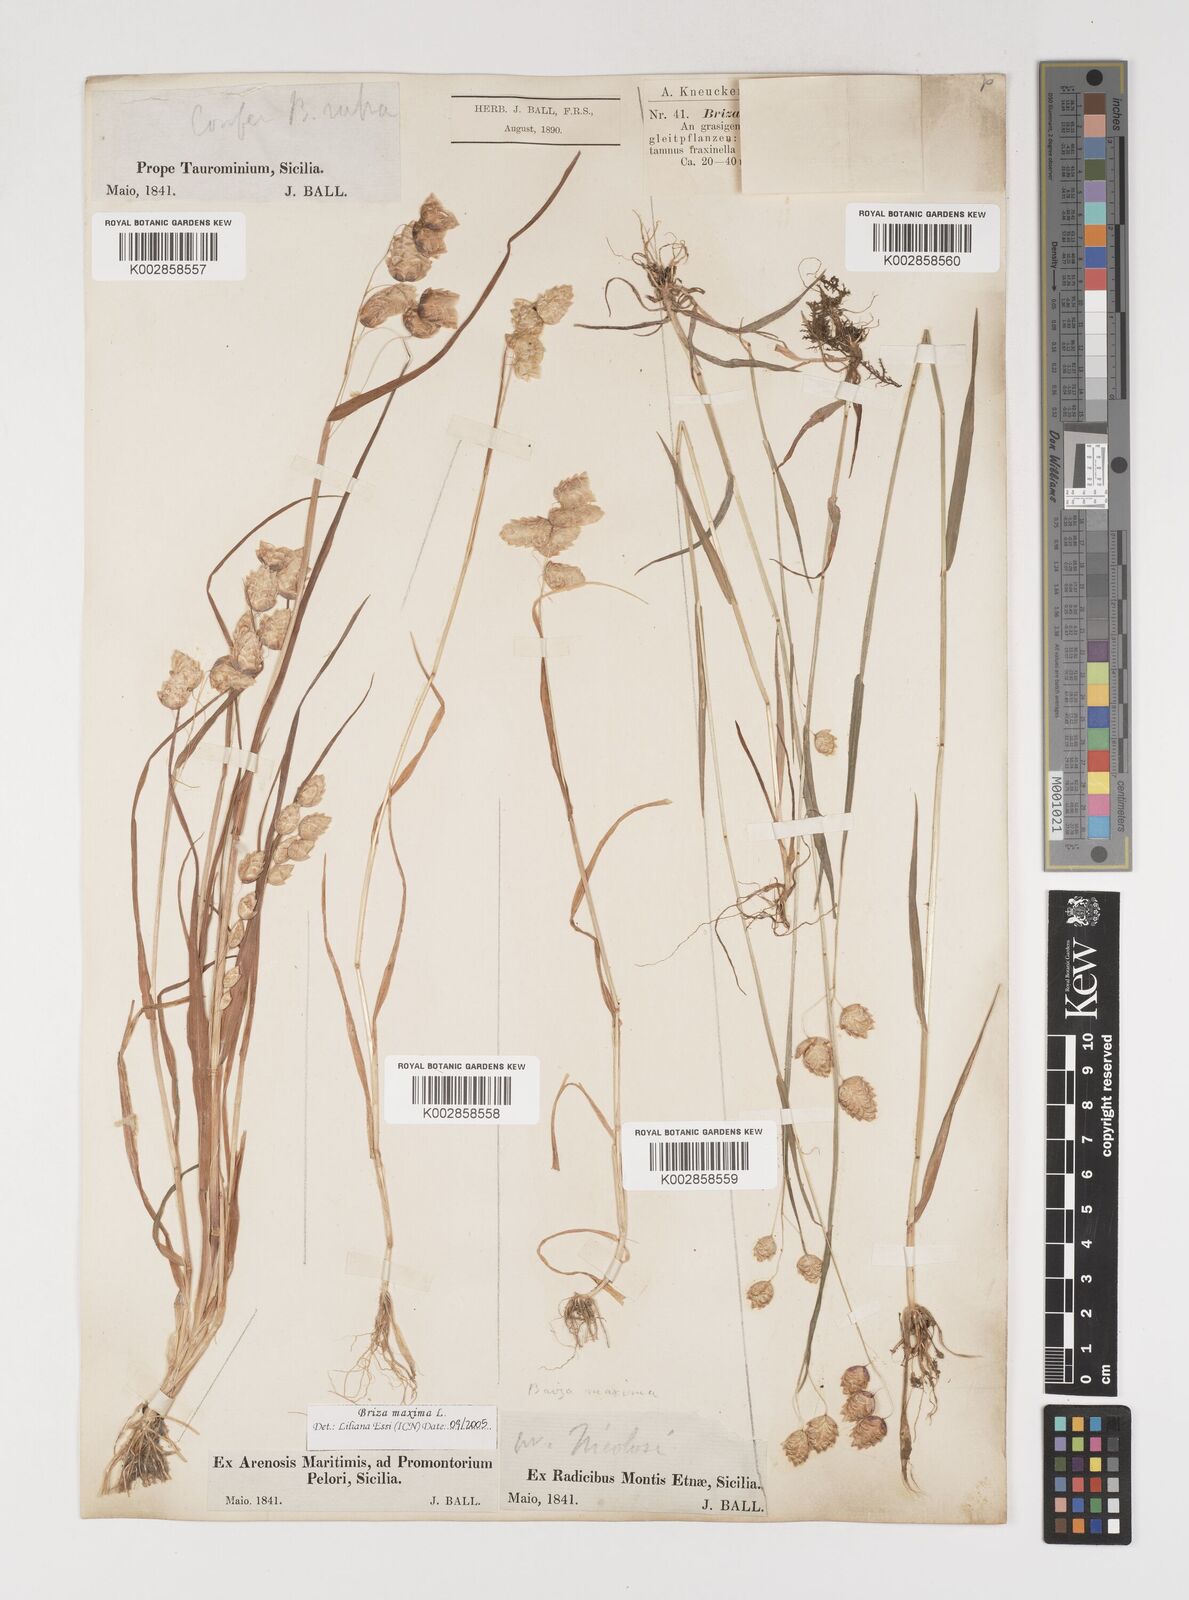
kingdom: Plantae
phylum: Tracheophyta
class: Liliopsida
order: Poales
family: Poaceae
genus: Briza
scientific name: Briza maxima
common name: Big quakinggrass
